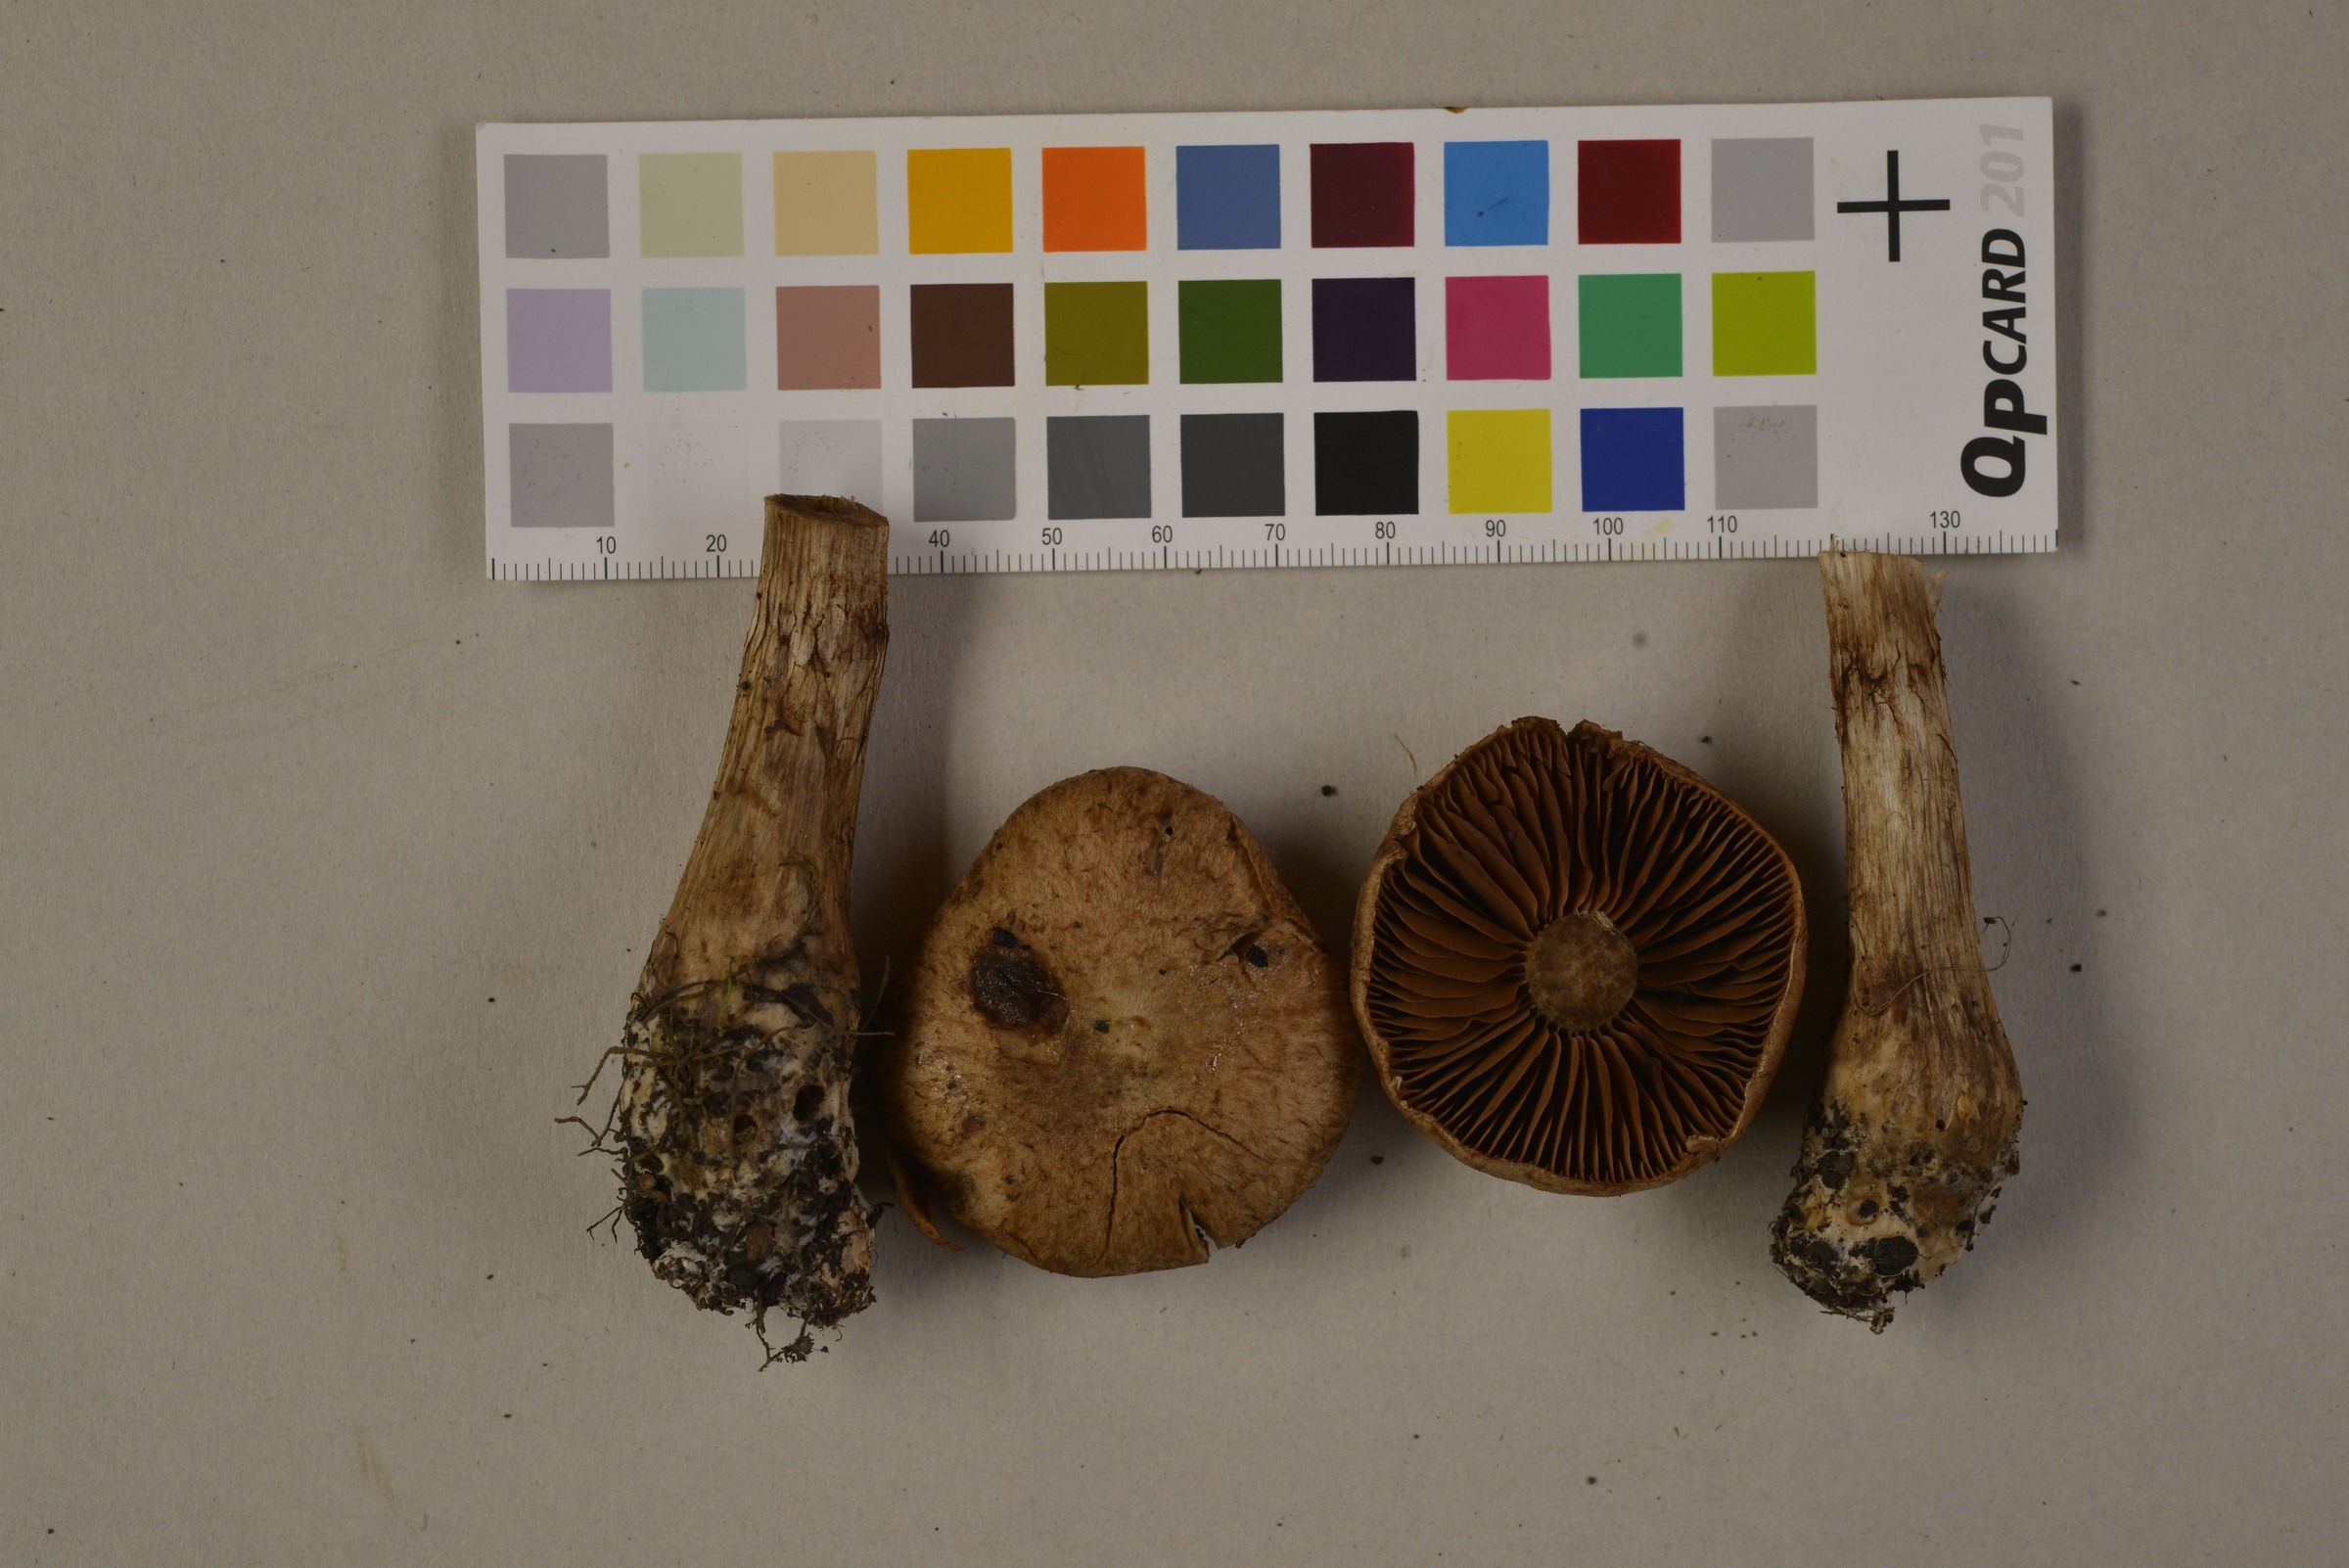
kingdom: Fungi
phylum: Basidiomycota
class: Agaricomycetes
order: Agaricales
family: Cortinariaceae
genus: Cortinarius
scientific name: Cortinarius aprinus
